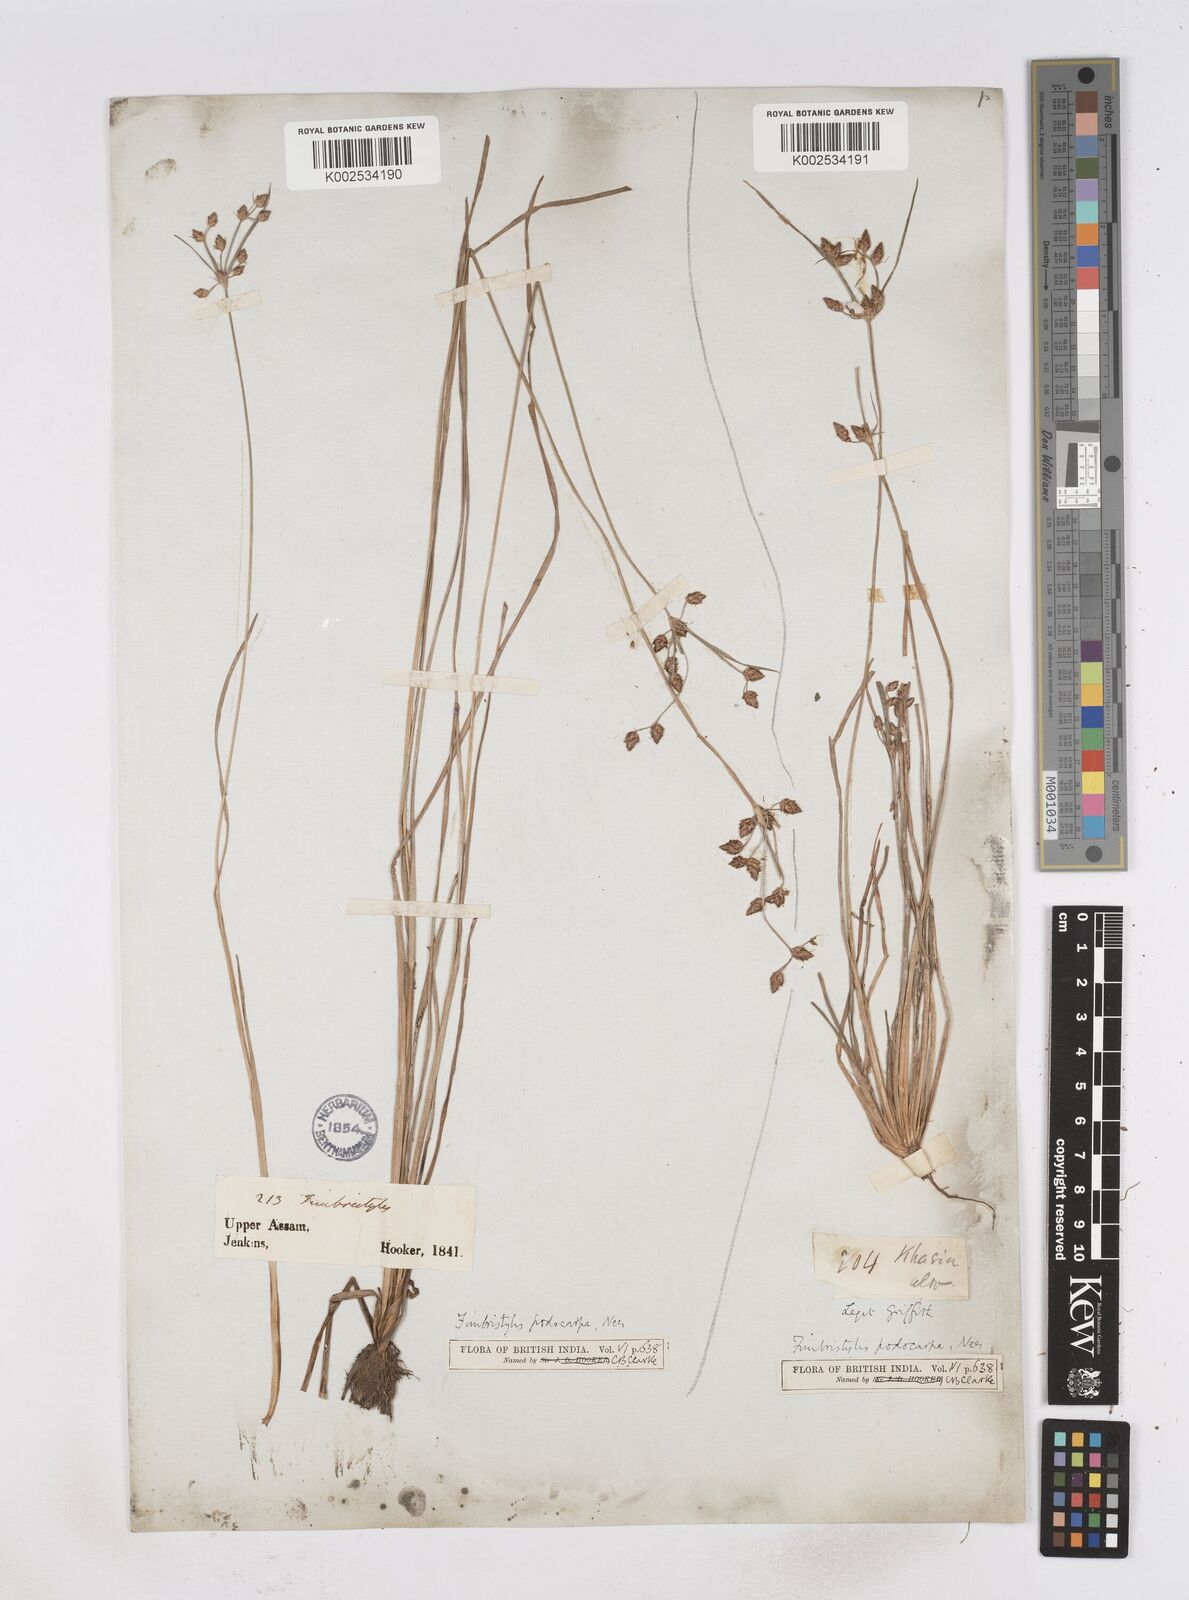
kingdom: Plantae
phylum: Tracheophyta
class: Liliopsida
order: Poales
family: Cyperaceae
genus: Fimbristylis
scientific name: Fimbristylis dichotoma
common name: Forked fimbry
